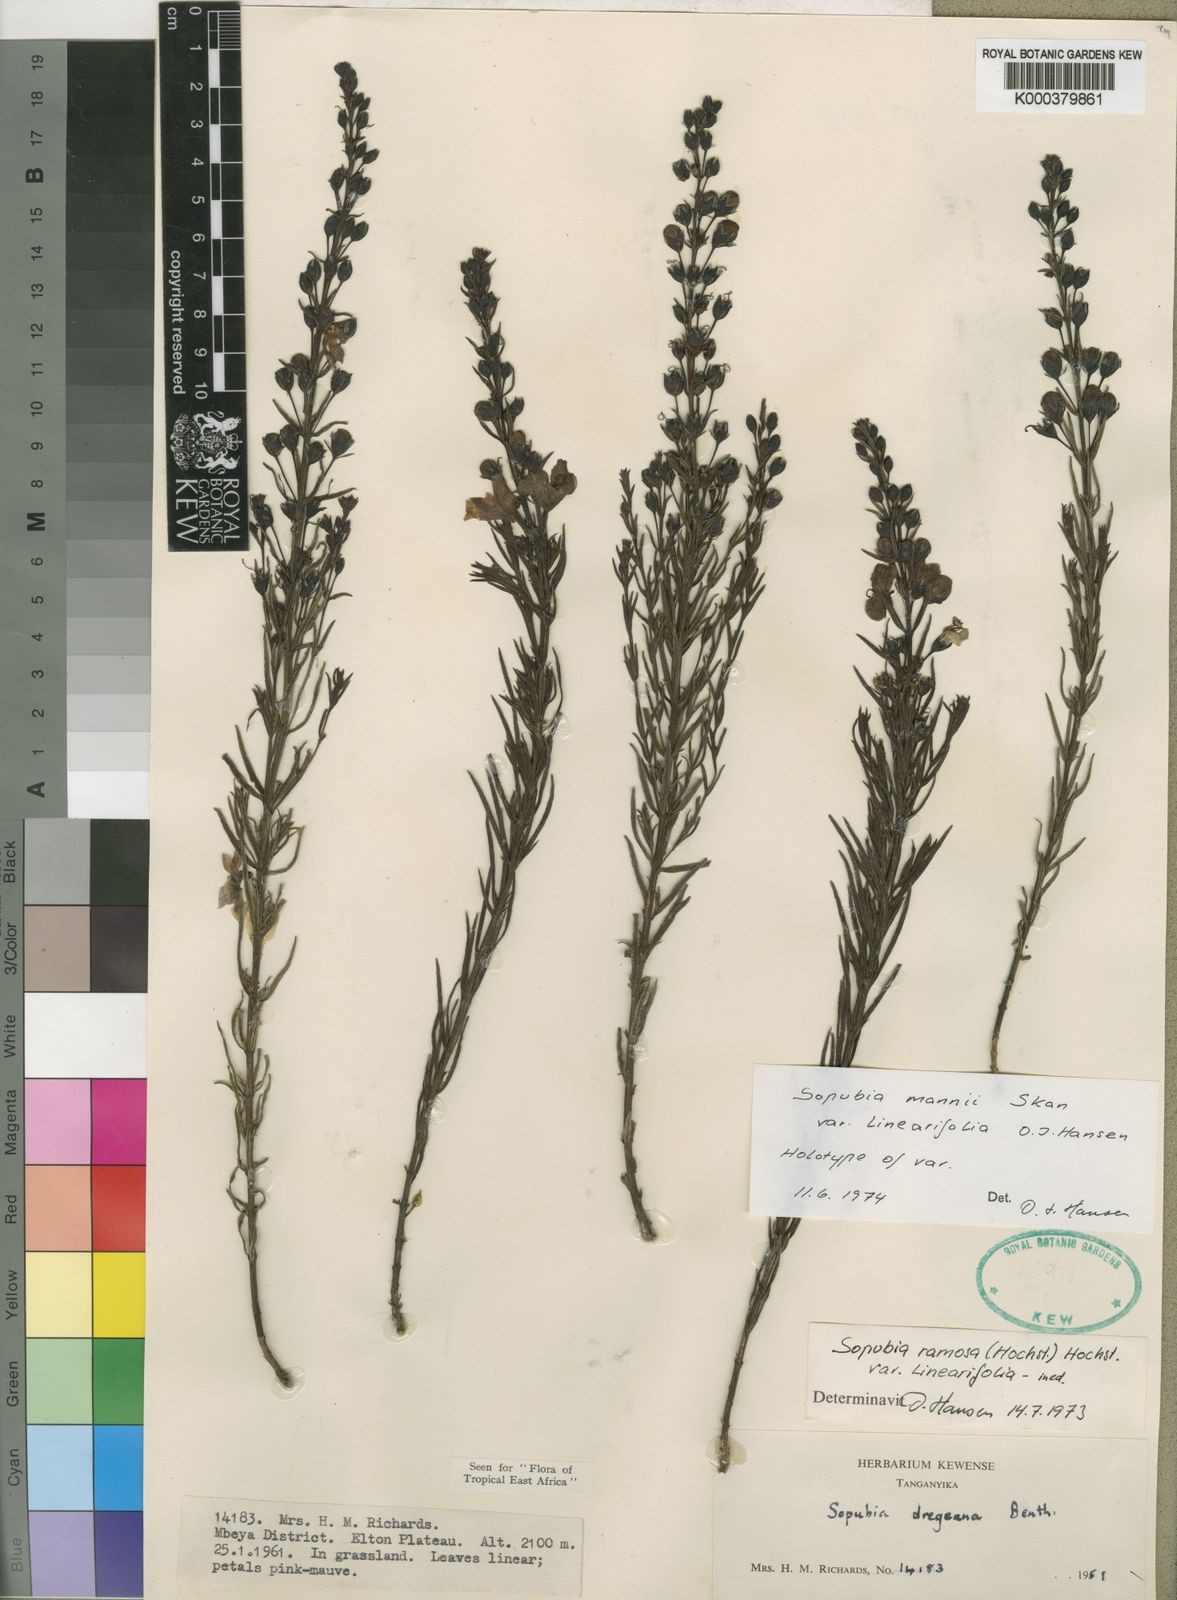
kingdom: Plantae
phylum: Tracheophyta
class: Magnoliopsida
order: Lamiales
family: Orobanchaceae
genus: Sopubia
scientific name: Sopubia mannii
